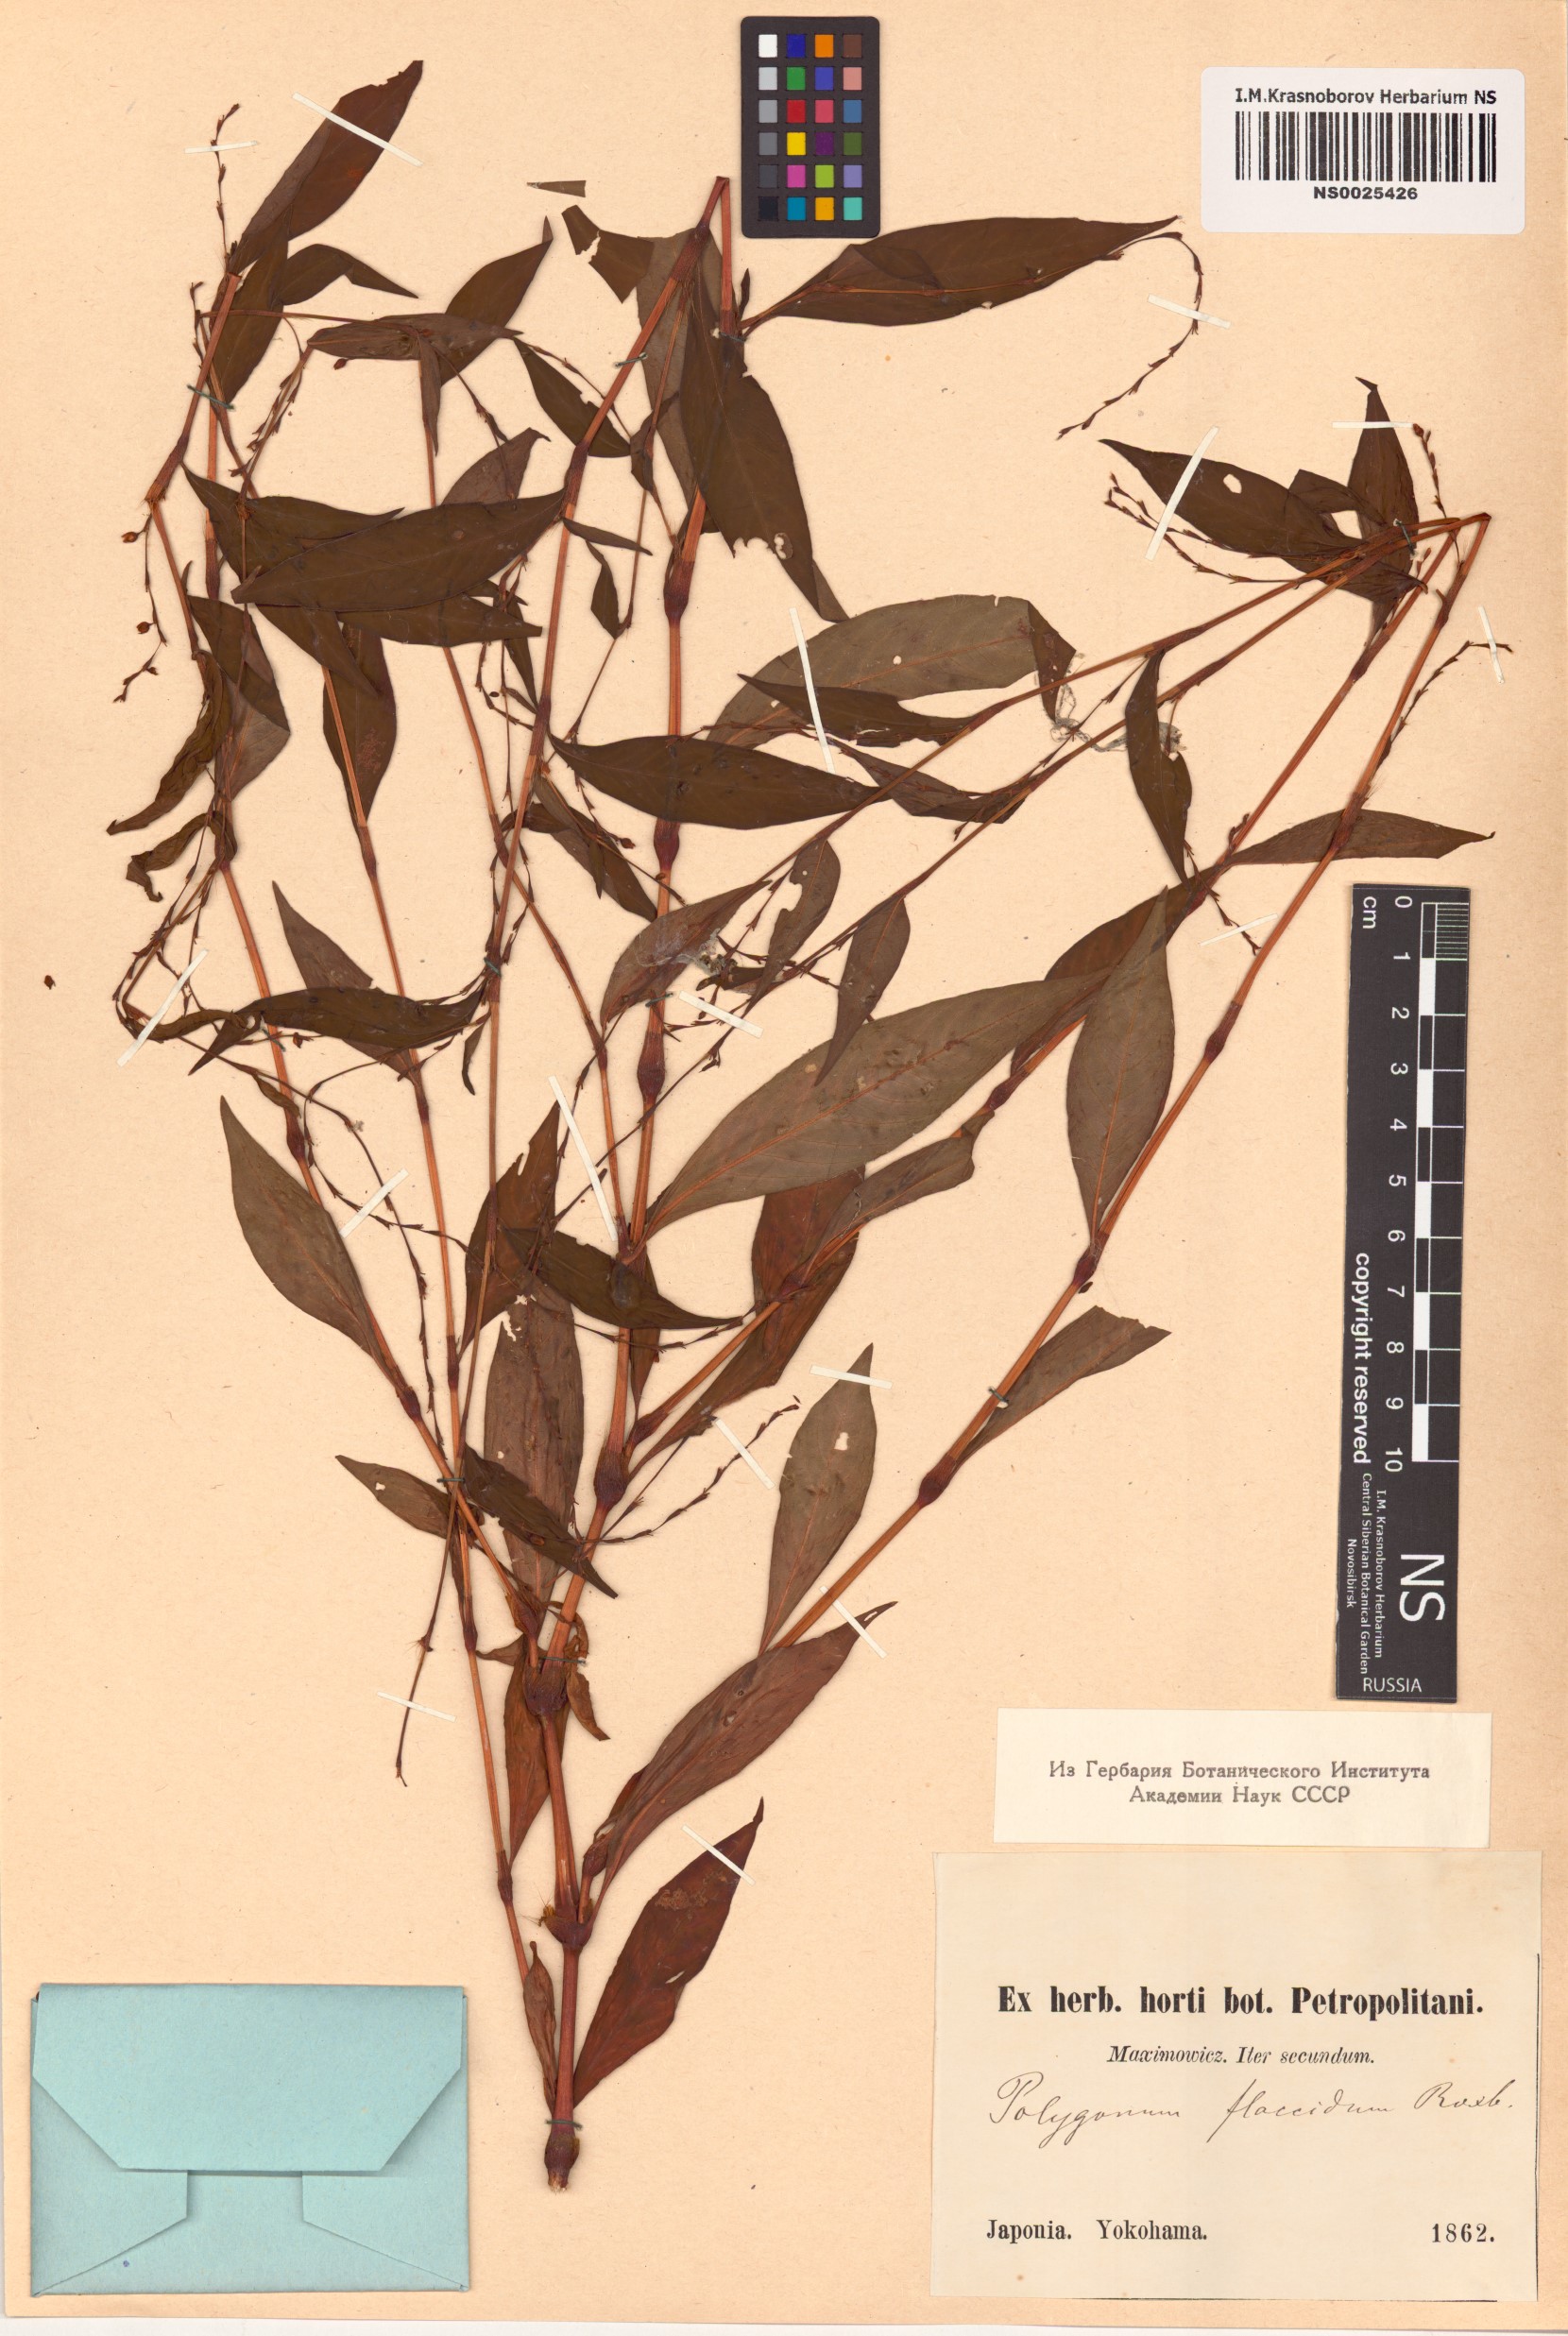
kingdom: Plantae
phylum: Tracheophyta
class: Magnoliopsida
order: Caryophyllales
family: Polygonaceae
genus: Persicaria
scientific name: Persicaria salicifolia
